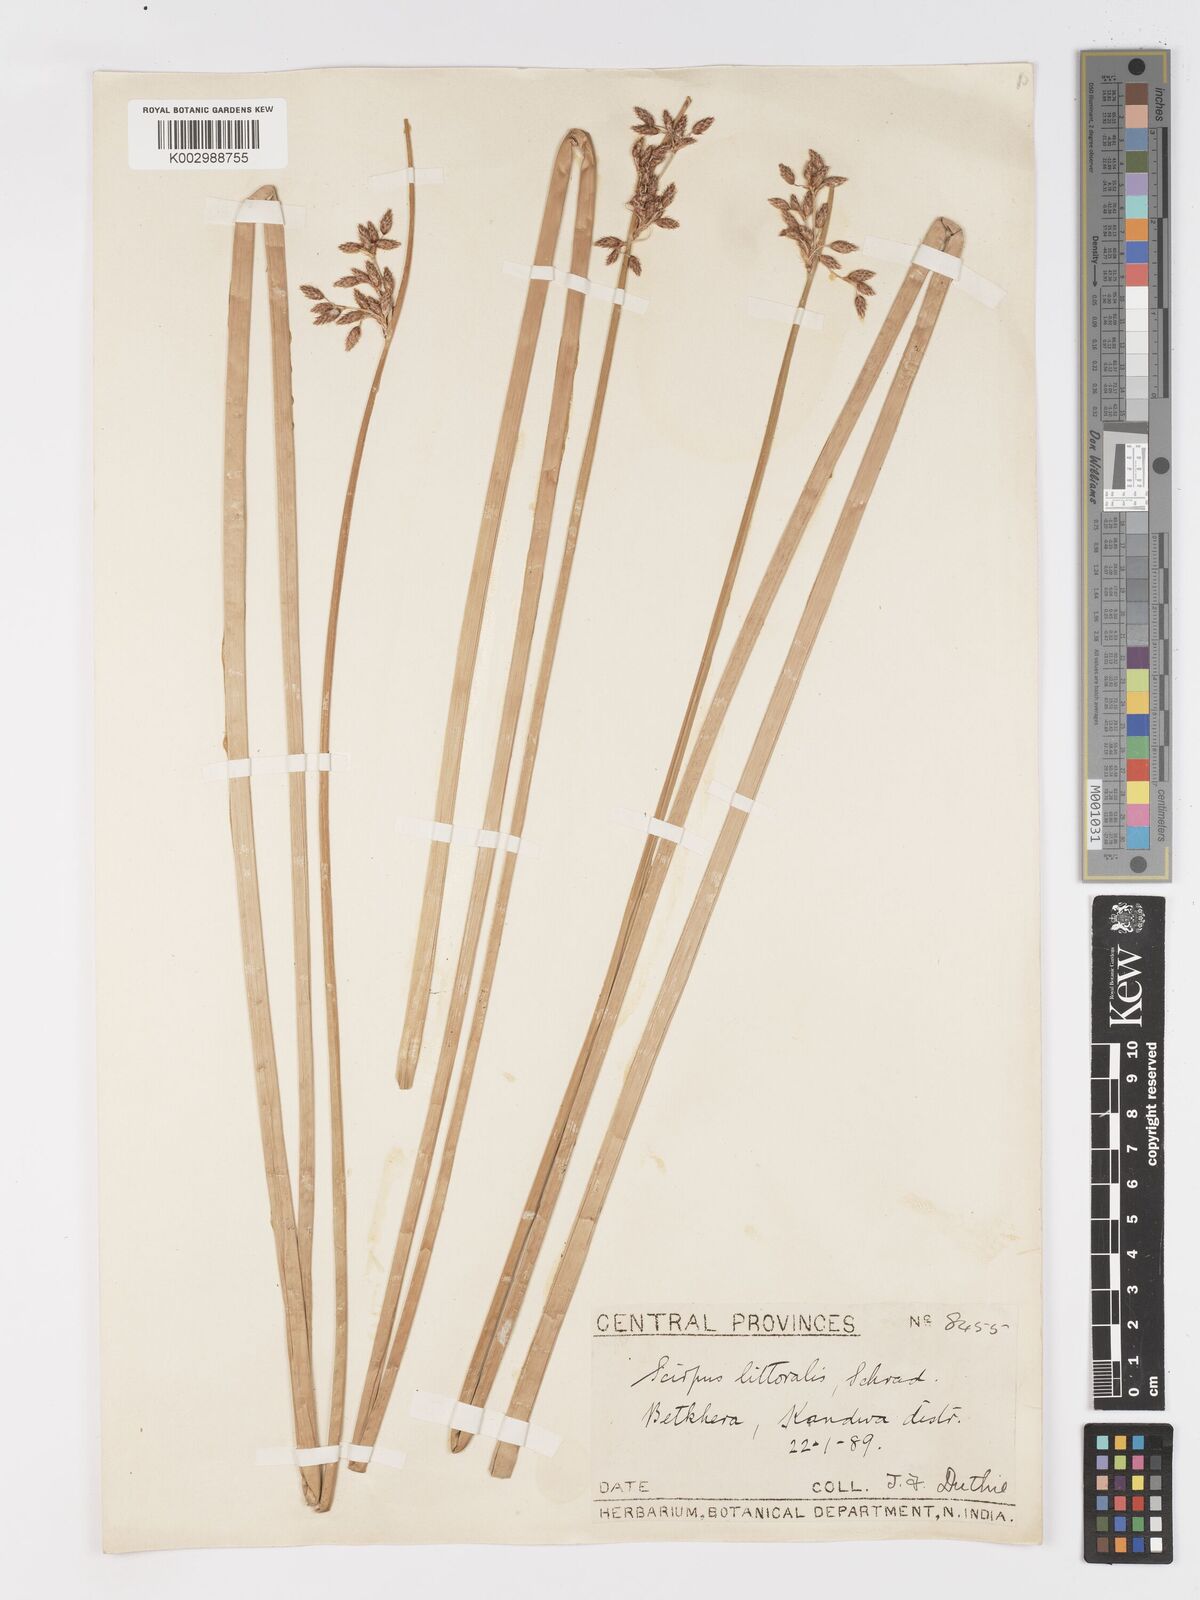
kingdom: Plantae
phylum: Tracheophyta
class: Liliopsida
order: Poales
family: Cyperaceae
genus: Schoenoplectus
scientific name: Schoenoplectus litoralis
